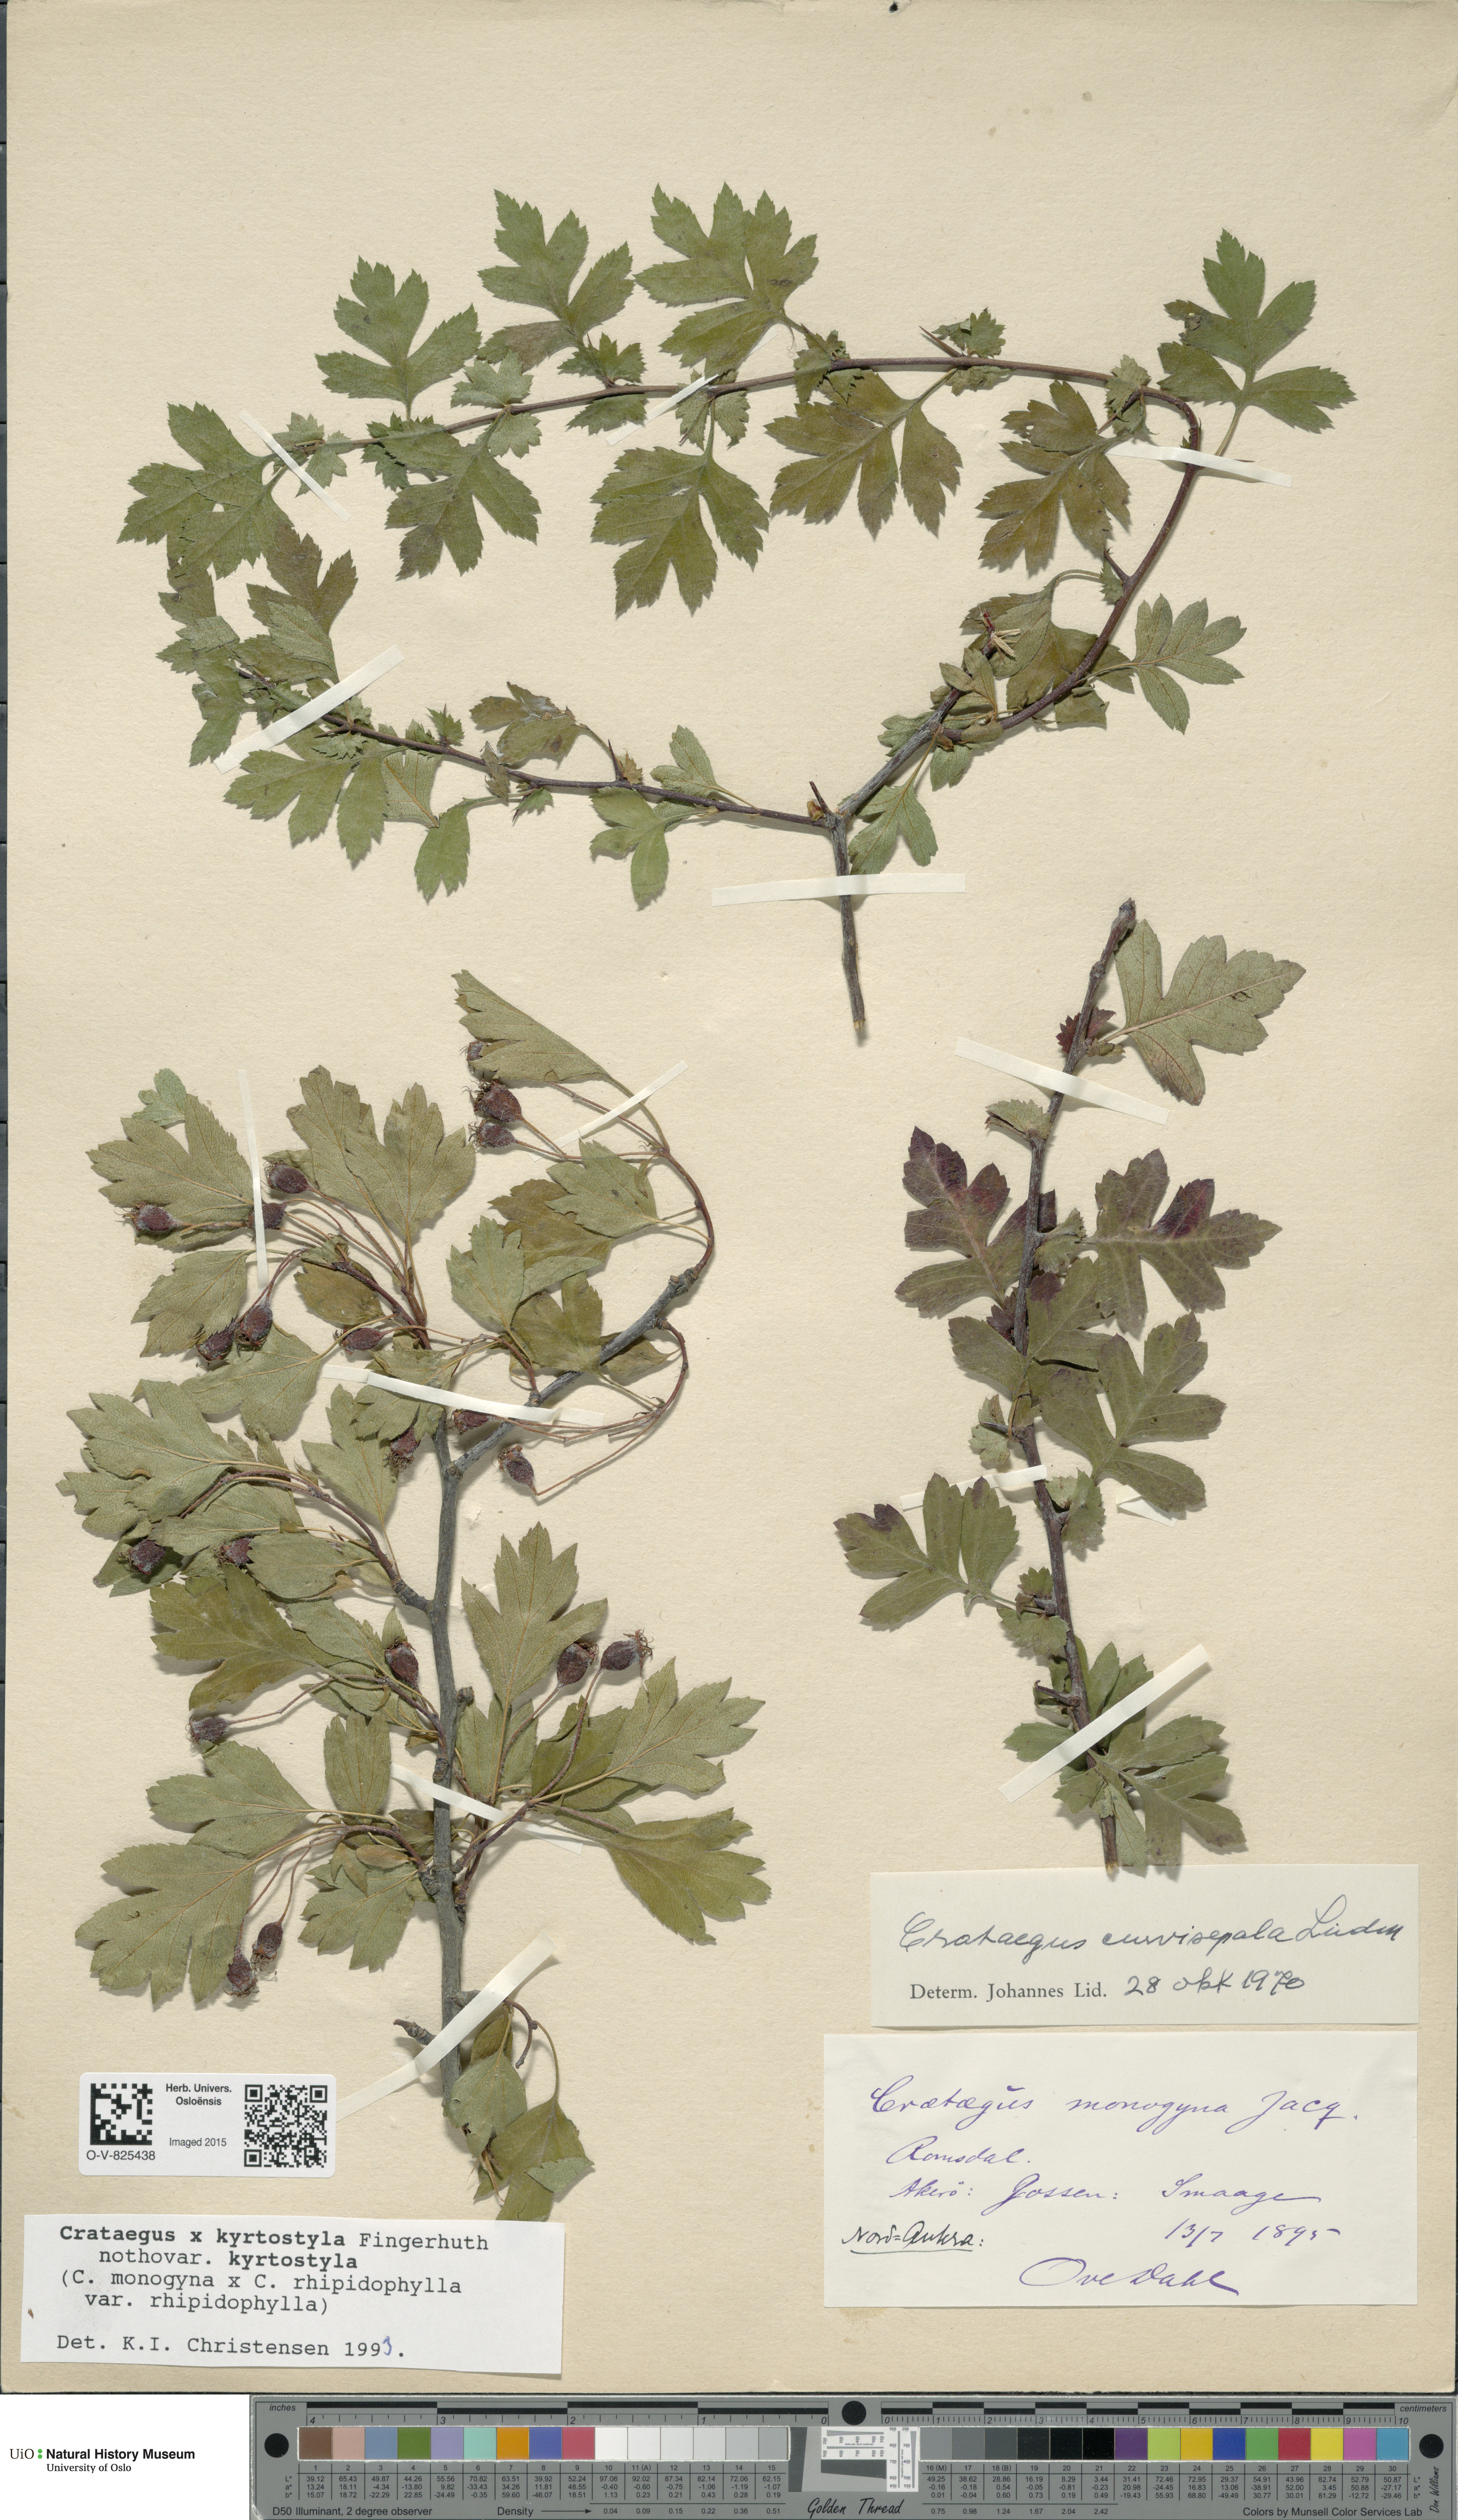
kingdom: Plantae
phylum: Tracheophyta
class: Magnoliopsida
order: Rosales
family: Rosaceae
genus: Crataegus
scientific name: Crataegus kyrtostyla
